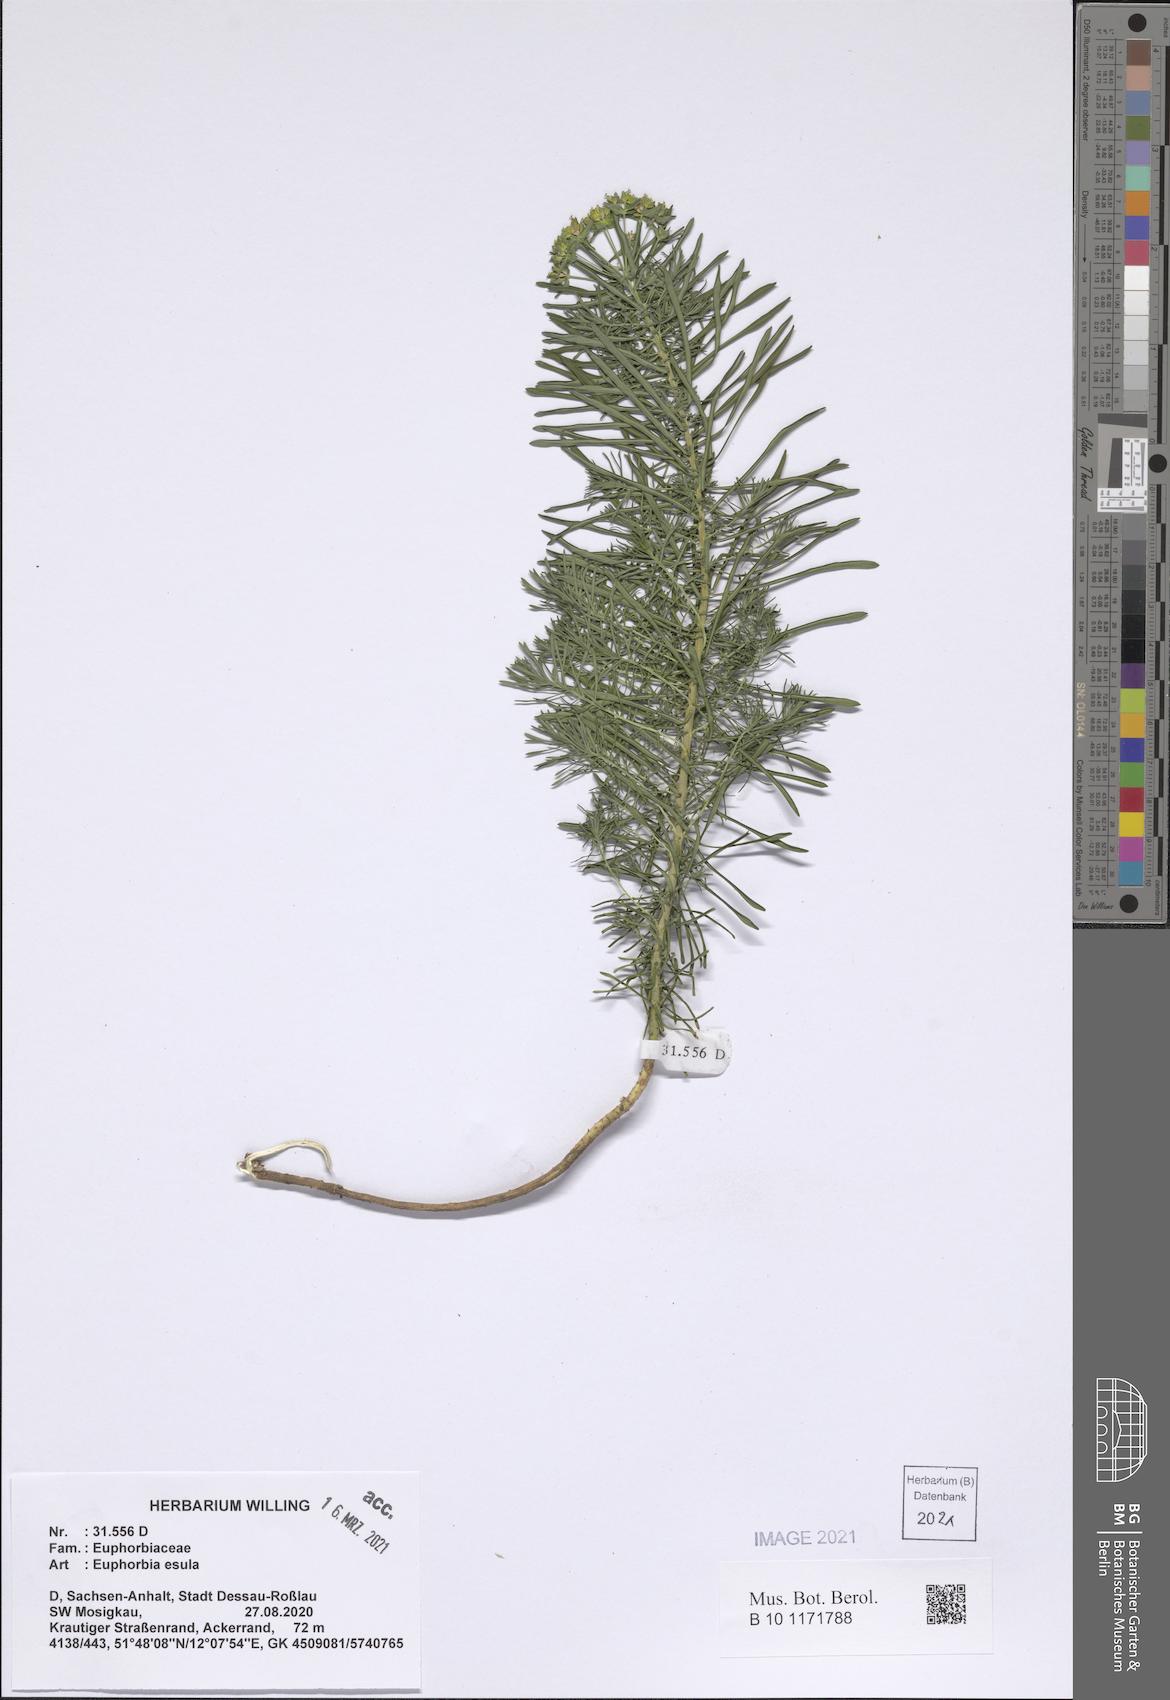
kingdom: Plantae
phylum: Tracheophyta
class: Magnoliopsida
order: Malpighiales
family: Euphorbiaceae
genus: Euphorbia
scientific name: Euphorbia esula
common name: Leafy spurge
